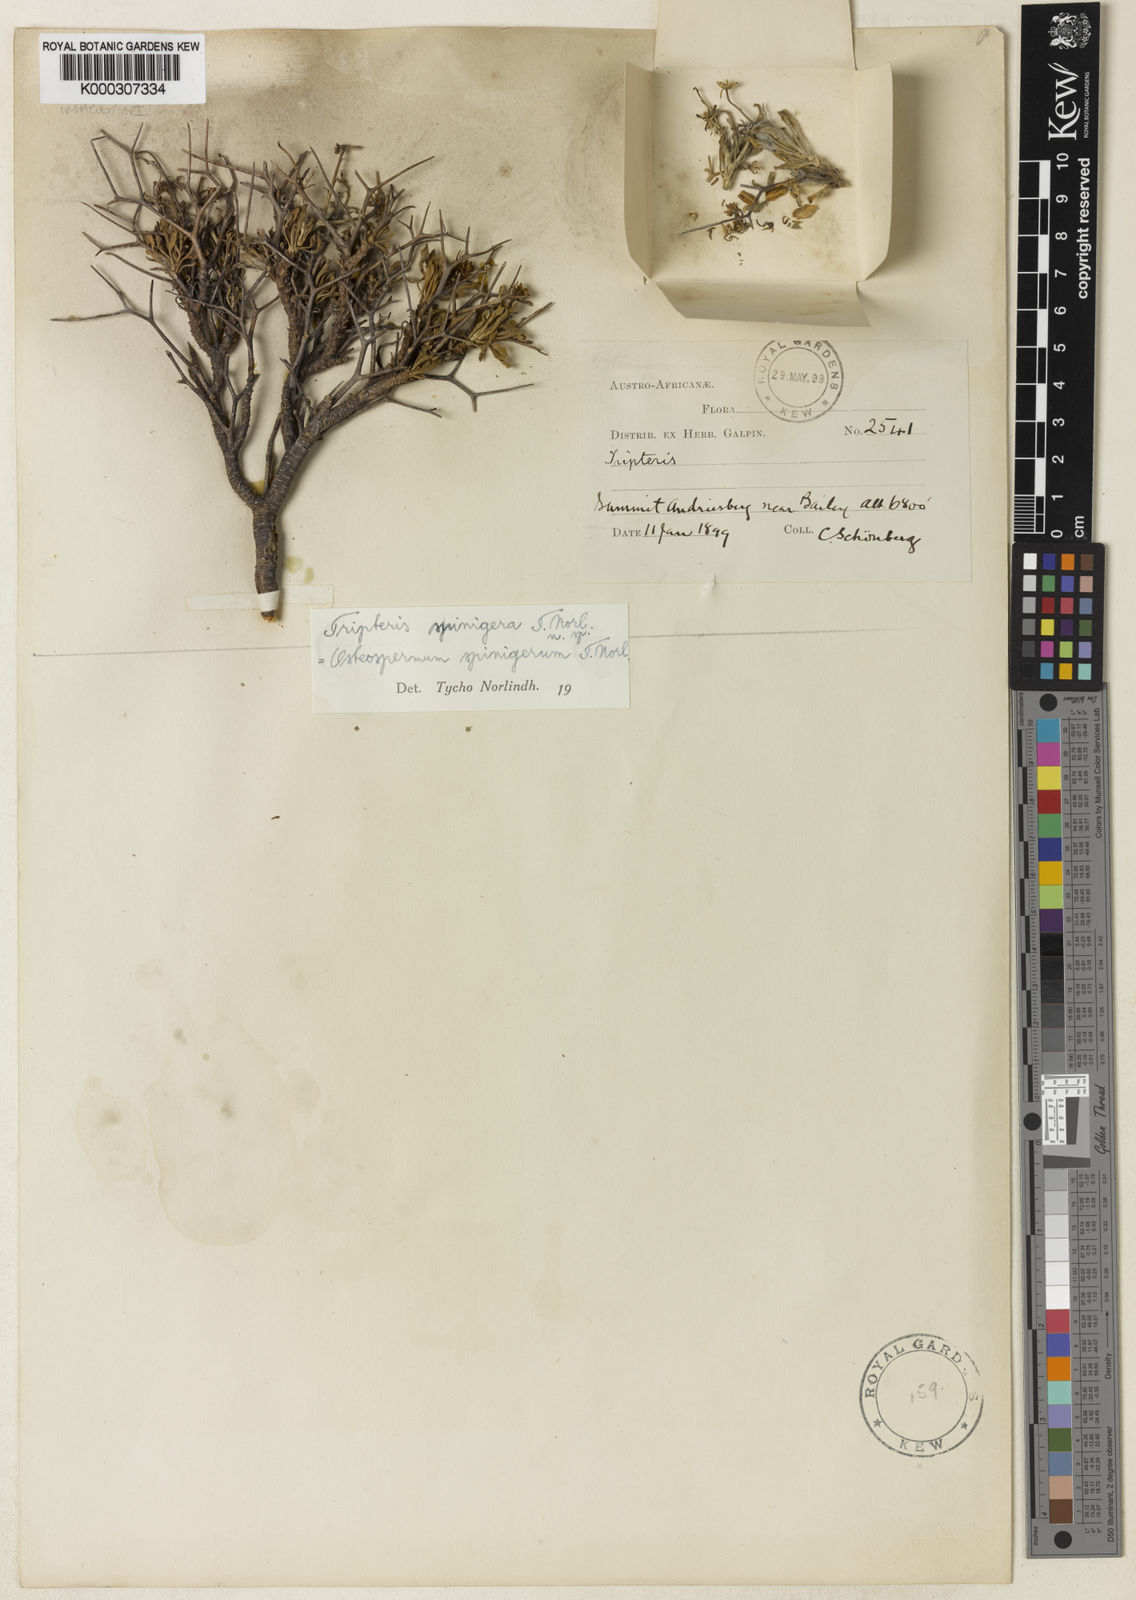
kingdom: Plantae
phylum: Tracheophyta
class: Magnoliopsida
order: Asterales
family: Asteraceae
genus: Monoculus
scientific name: Monoculus
